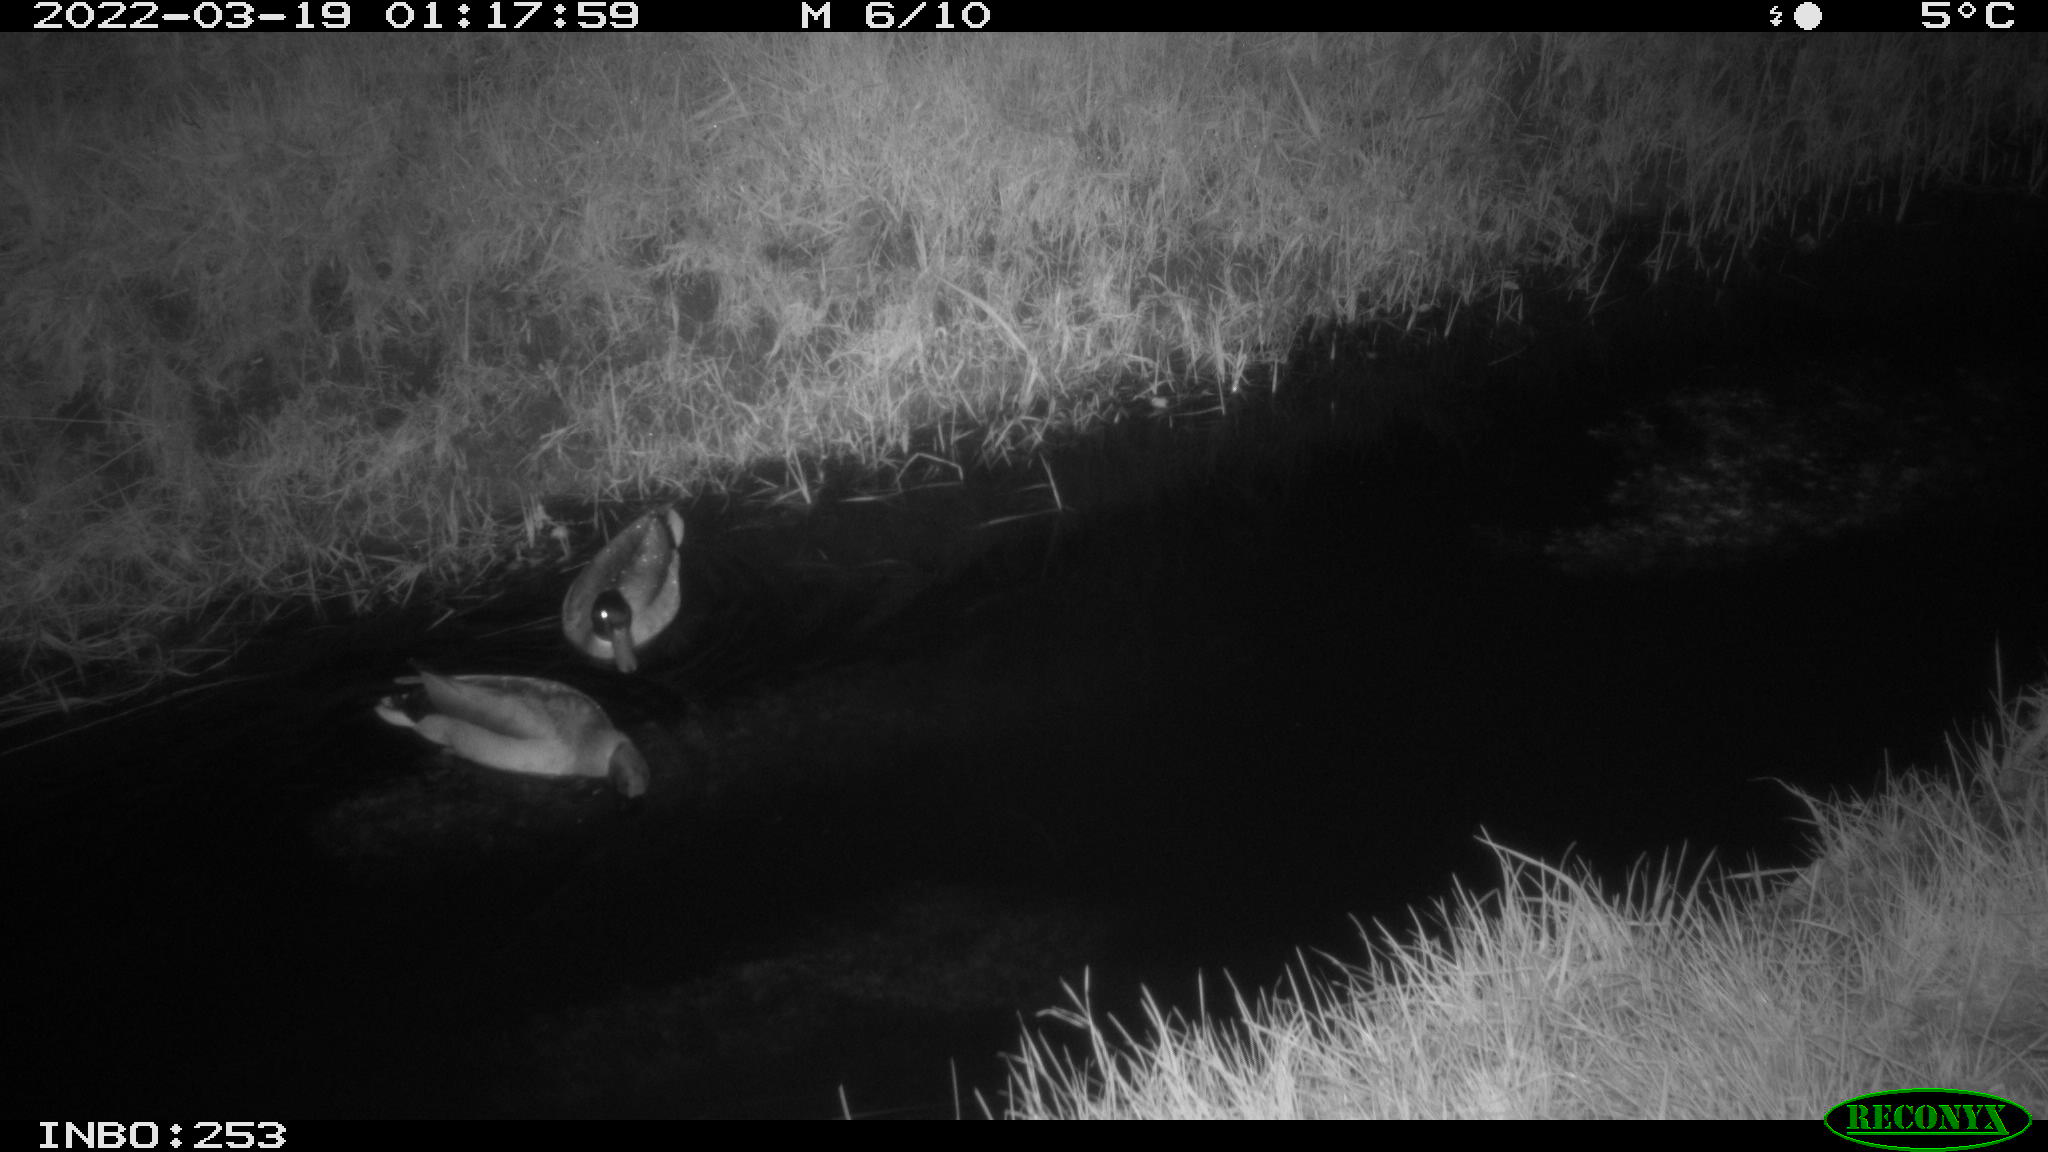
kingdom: Animalia
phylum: Chordata
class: Aves
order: Anseriformes
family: Anatidae
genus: Anas
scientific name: Anas platyrhynchos
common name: Mallard
